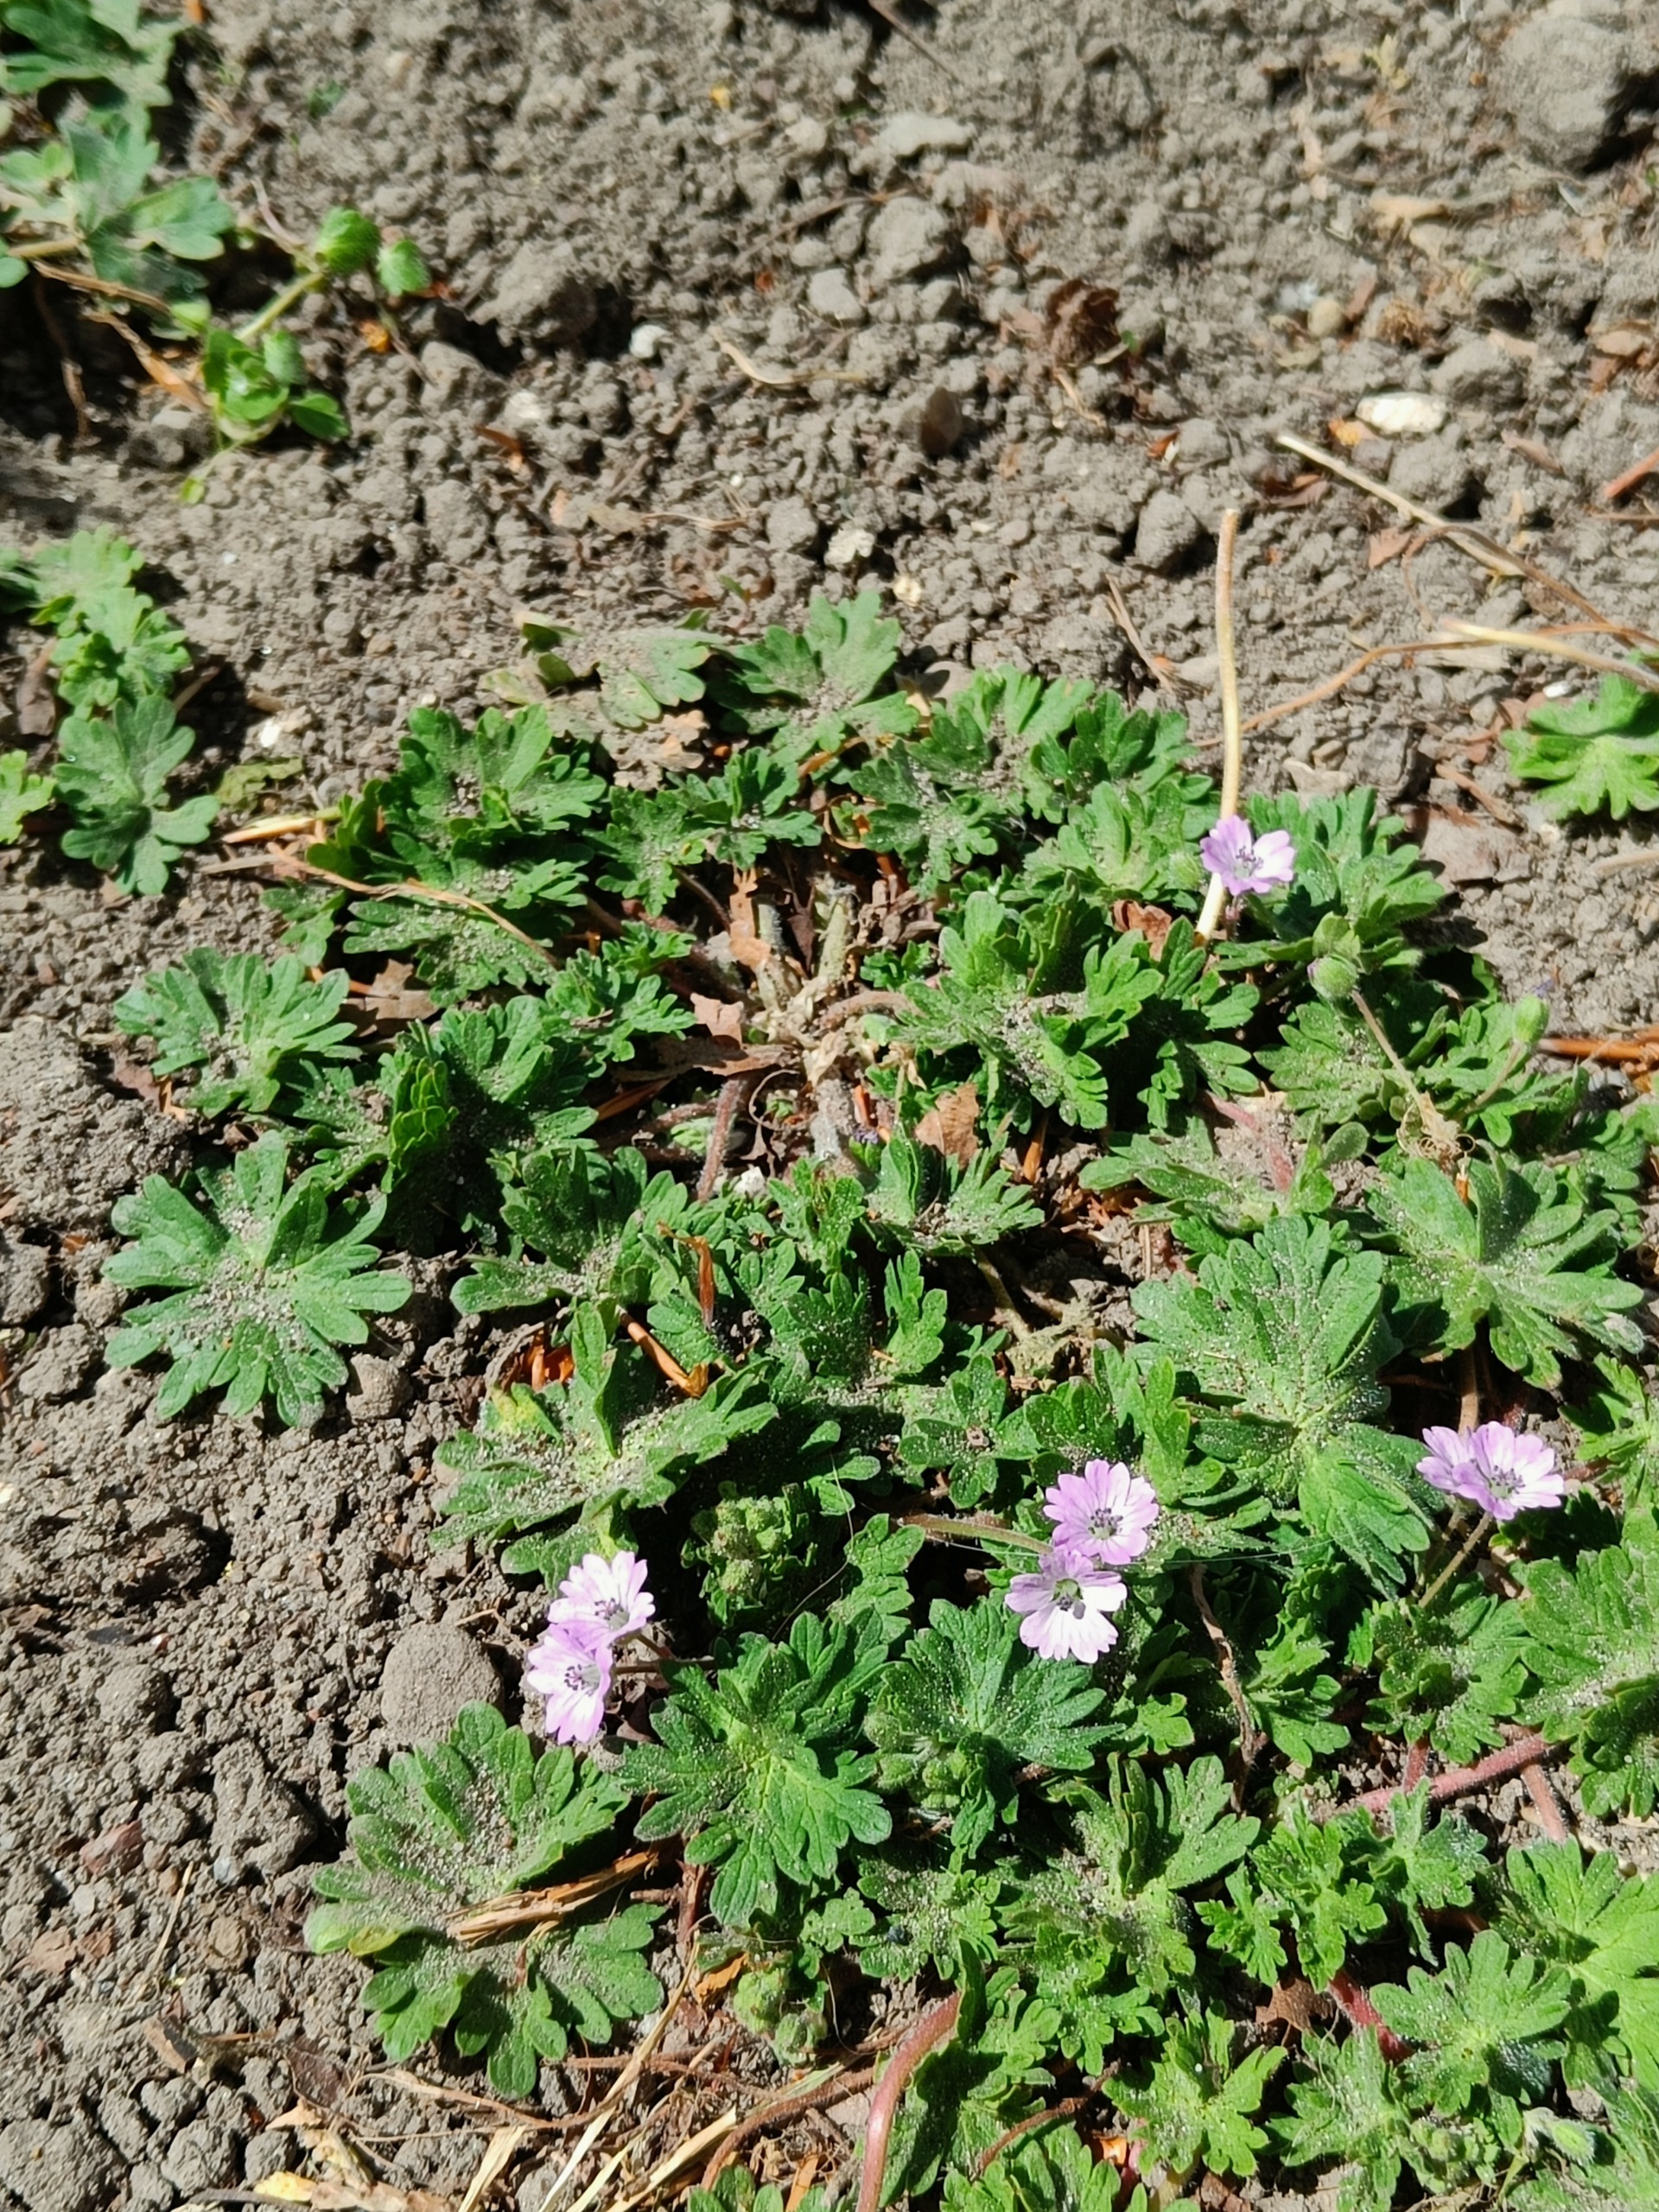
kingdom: Plantae
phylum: Tracheophyta
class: Magnoliopsida
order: Geraniales
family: Geraniaceae
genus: Geranium
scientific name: Geranium molle
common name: Blød storkenæb
